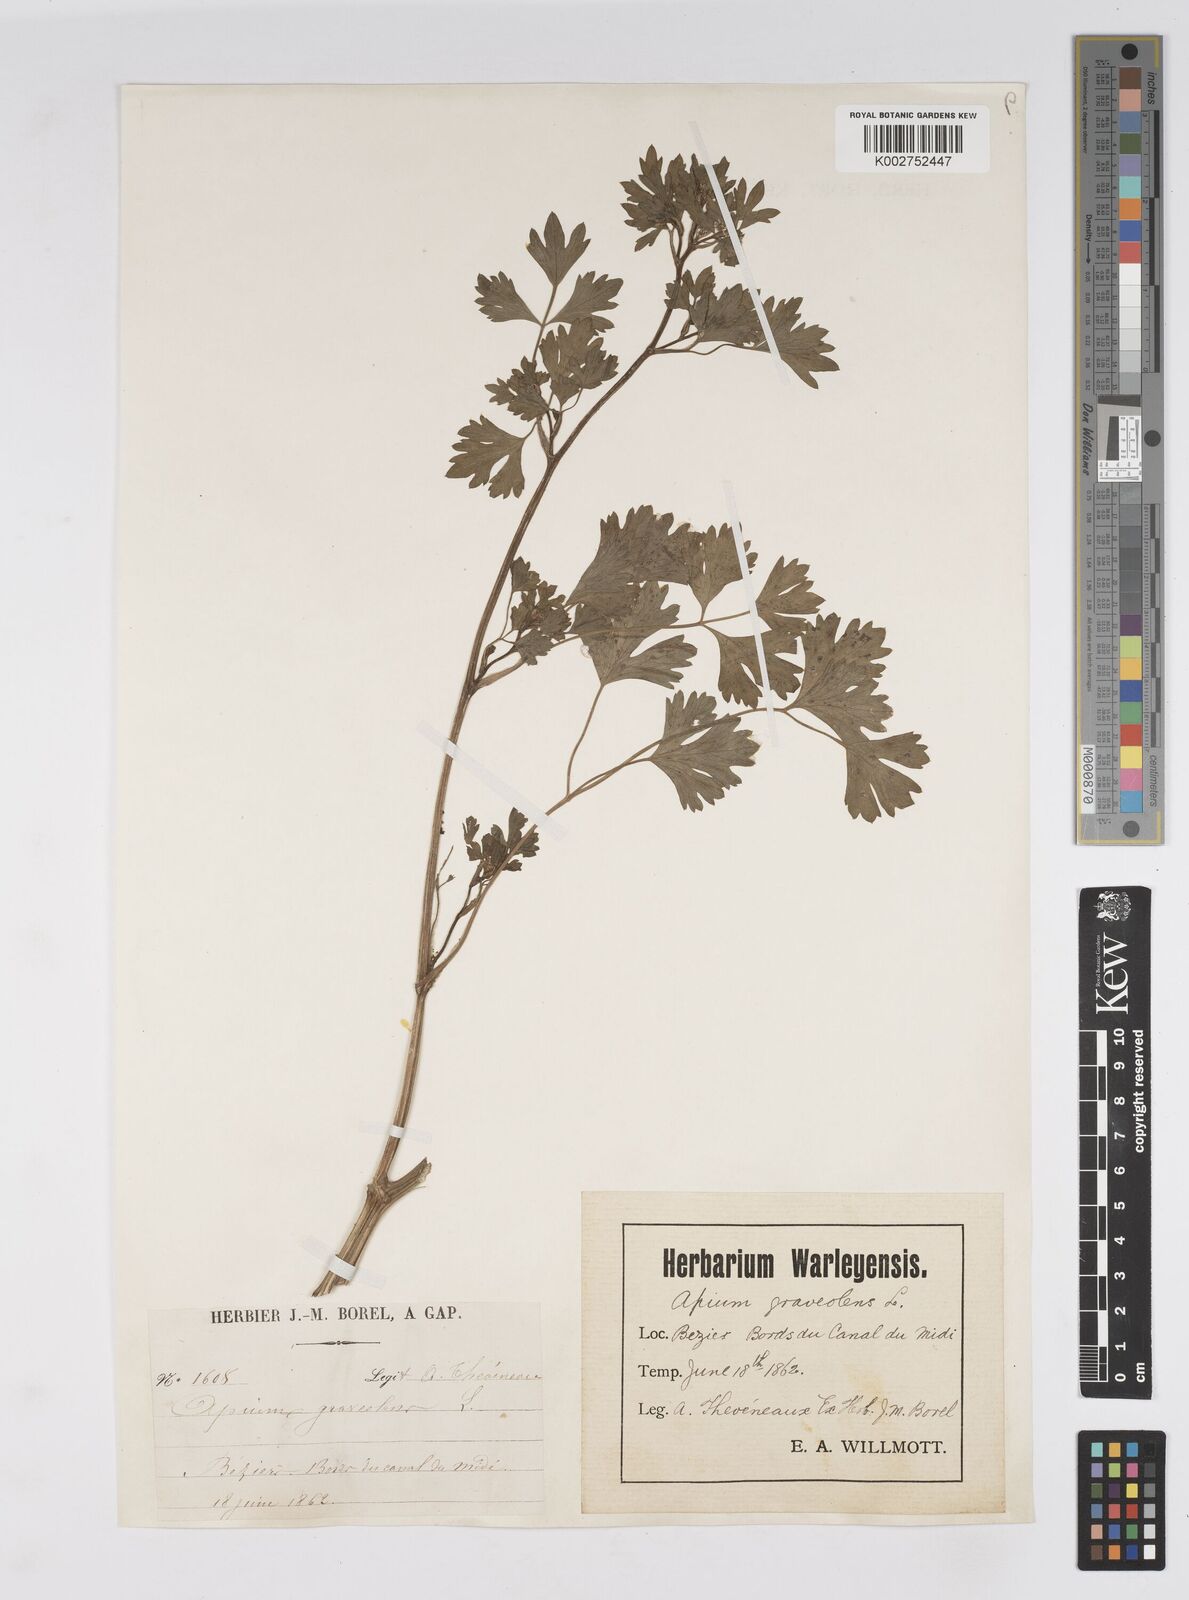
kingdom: Plantae
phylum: Tracheophyta
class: Magnoliopsida
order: Apiales
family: Apiaceae
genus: Apium
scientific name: Apium graveolens
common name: Wild celery
